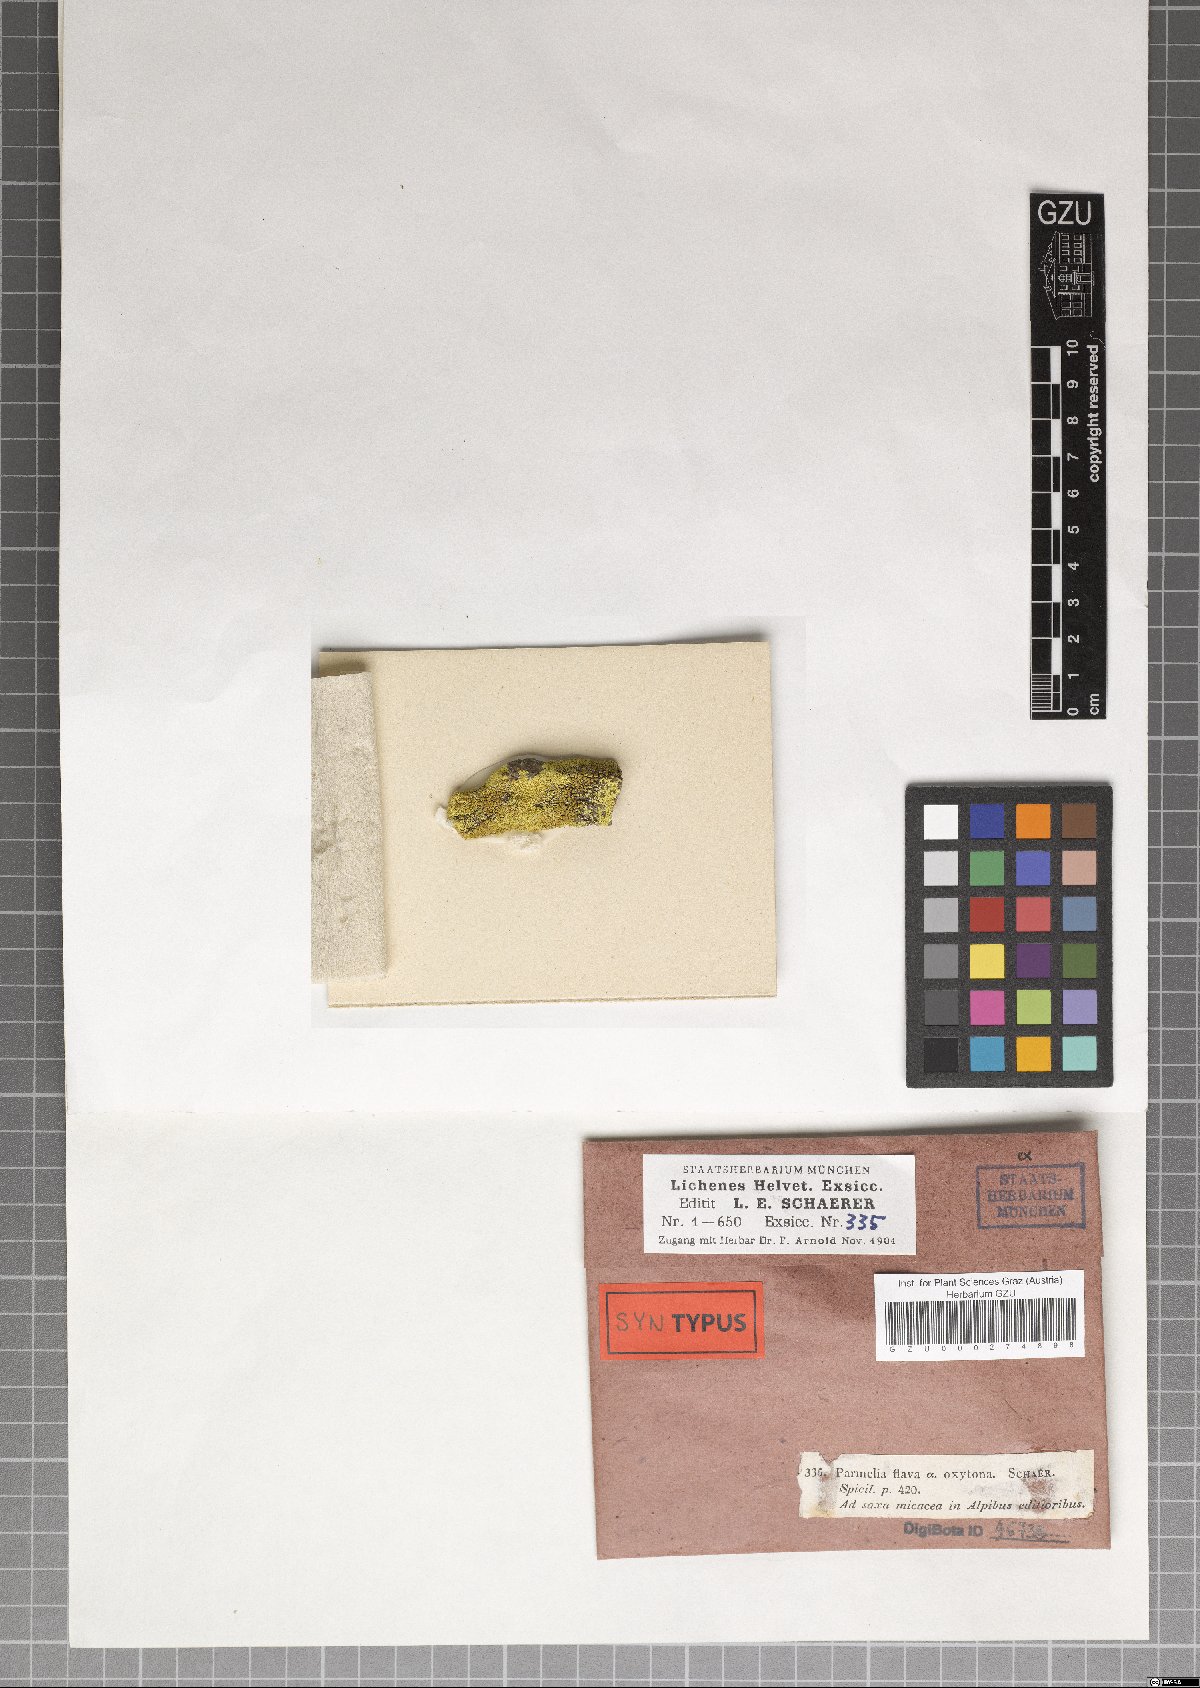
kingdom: Fungi
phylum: Ascomycota
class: Lecanoromycetes
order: Acarosporales
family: Acarosporaceae
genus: Pleopsidium
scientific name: Pleopsidium oxytonum
